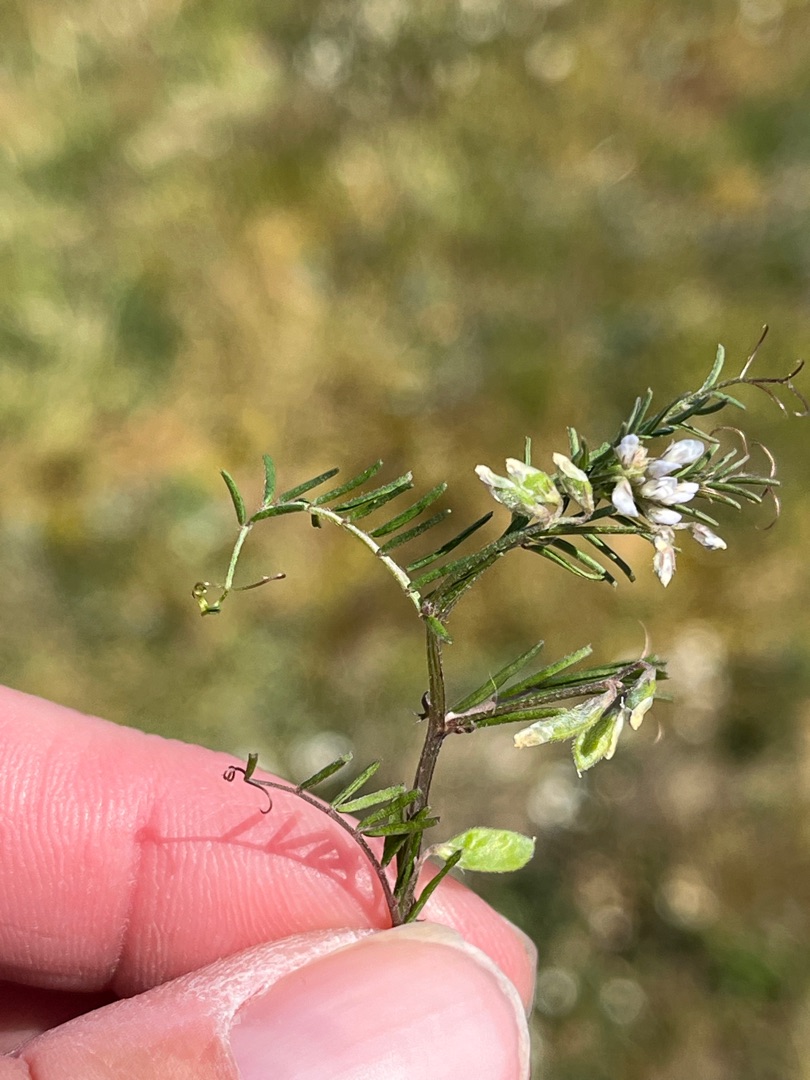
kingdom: Plantae
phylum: Tracheophyta
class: Magnoliopsida
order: Fabales
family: Fabaceae
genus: Vicia
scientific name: Vicia hirsuta
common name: Tofrøet vikke
